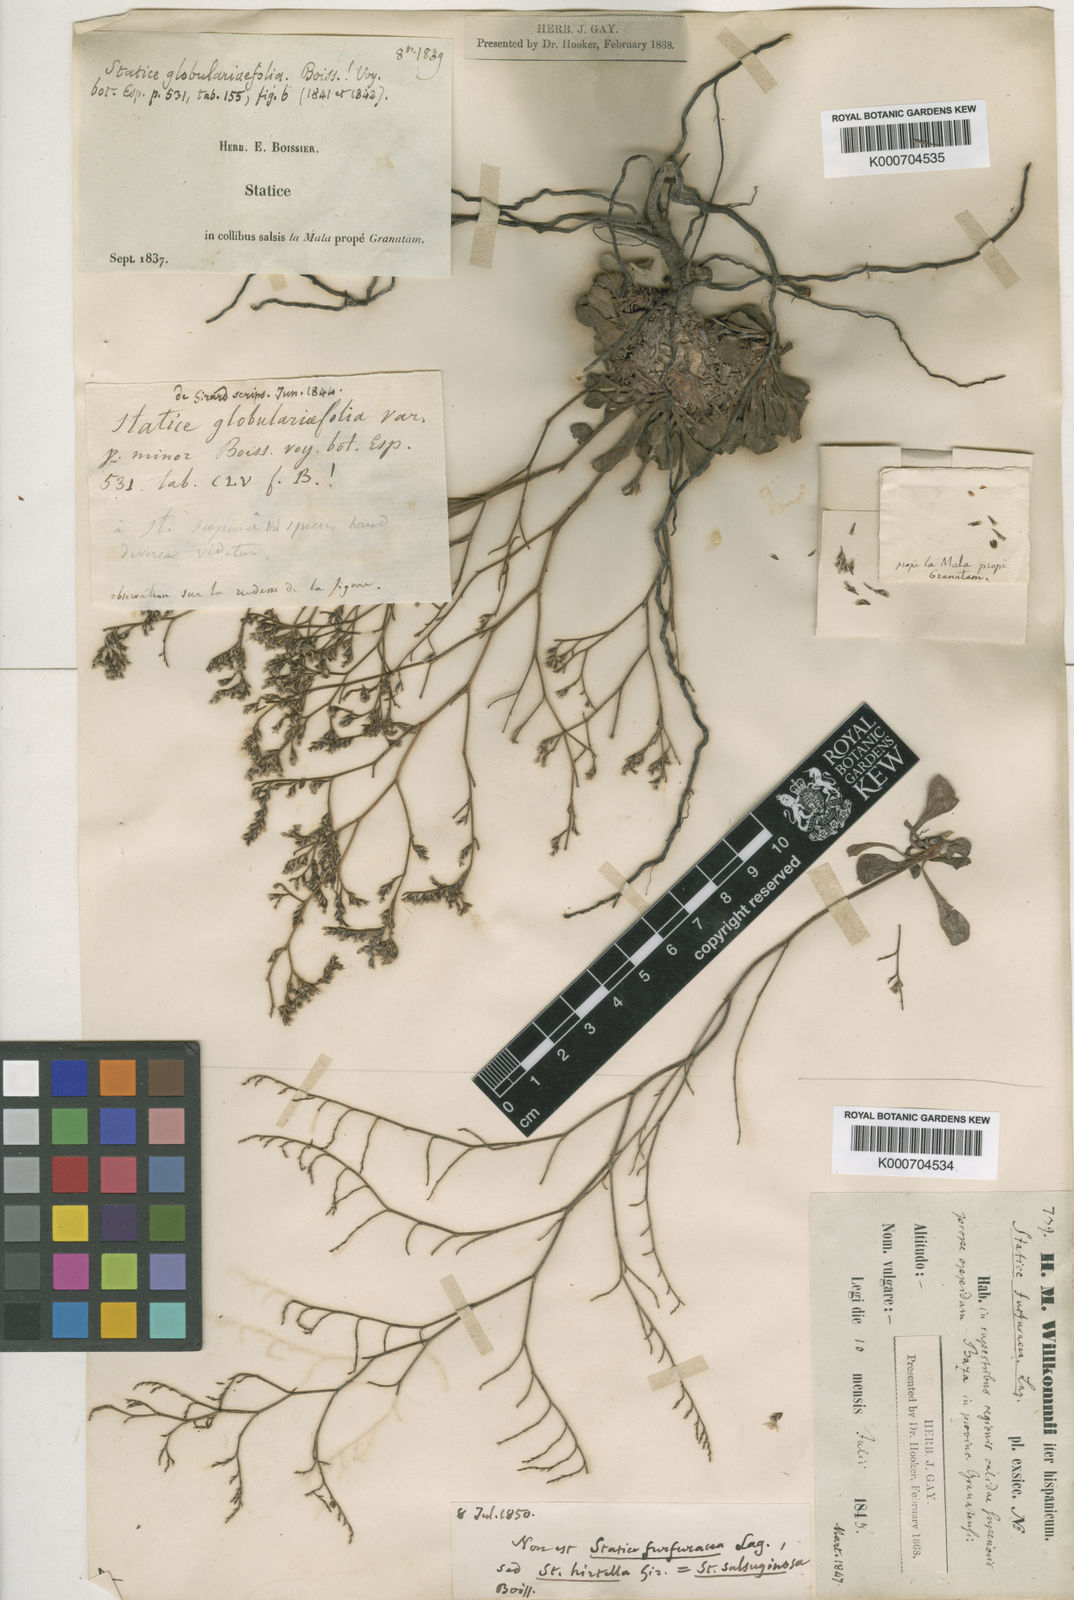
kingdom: Plantae
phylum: Tracheophyta
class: Magnoliopsida
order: Caryophyllales
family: Plumbaginaceae
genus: Limonium
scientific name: Limonium supinum
